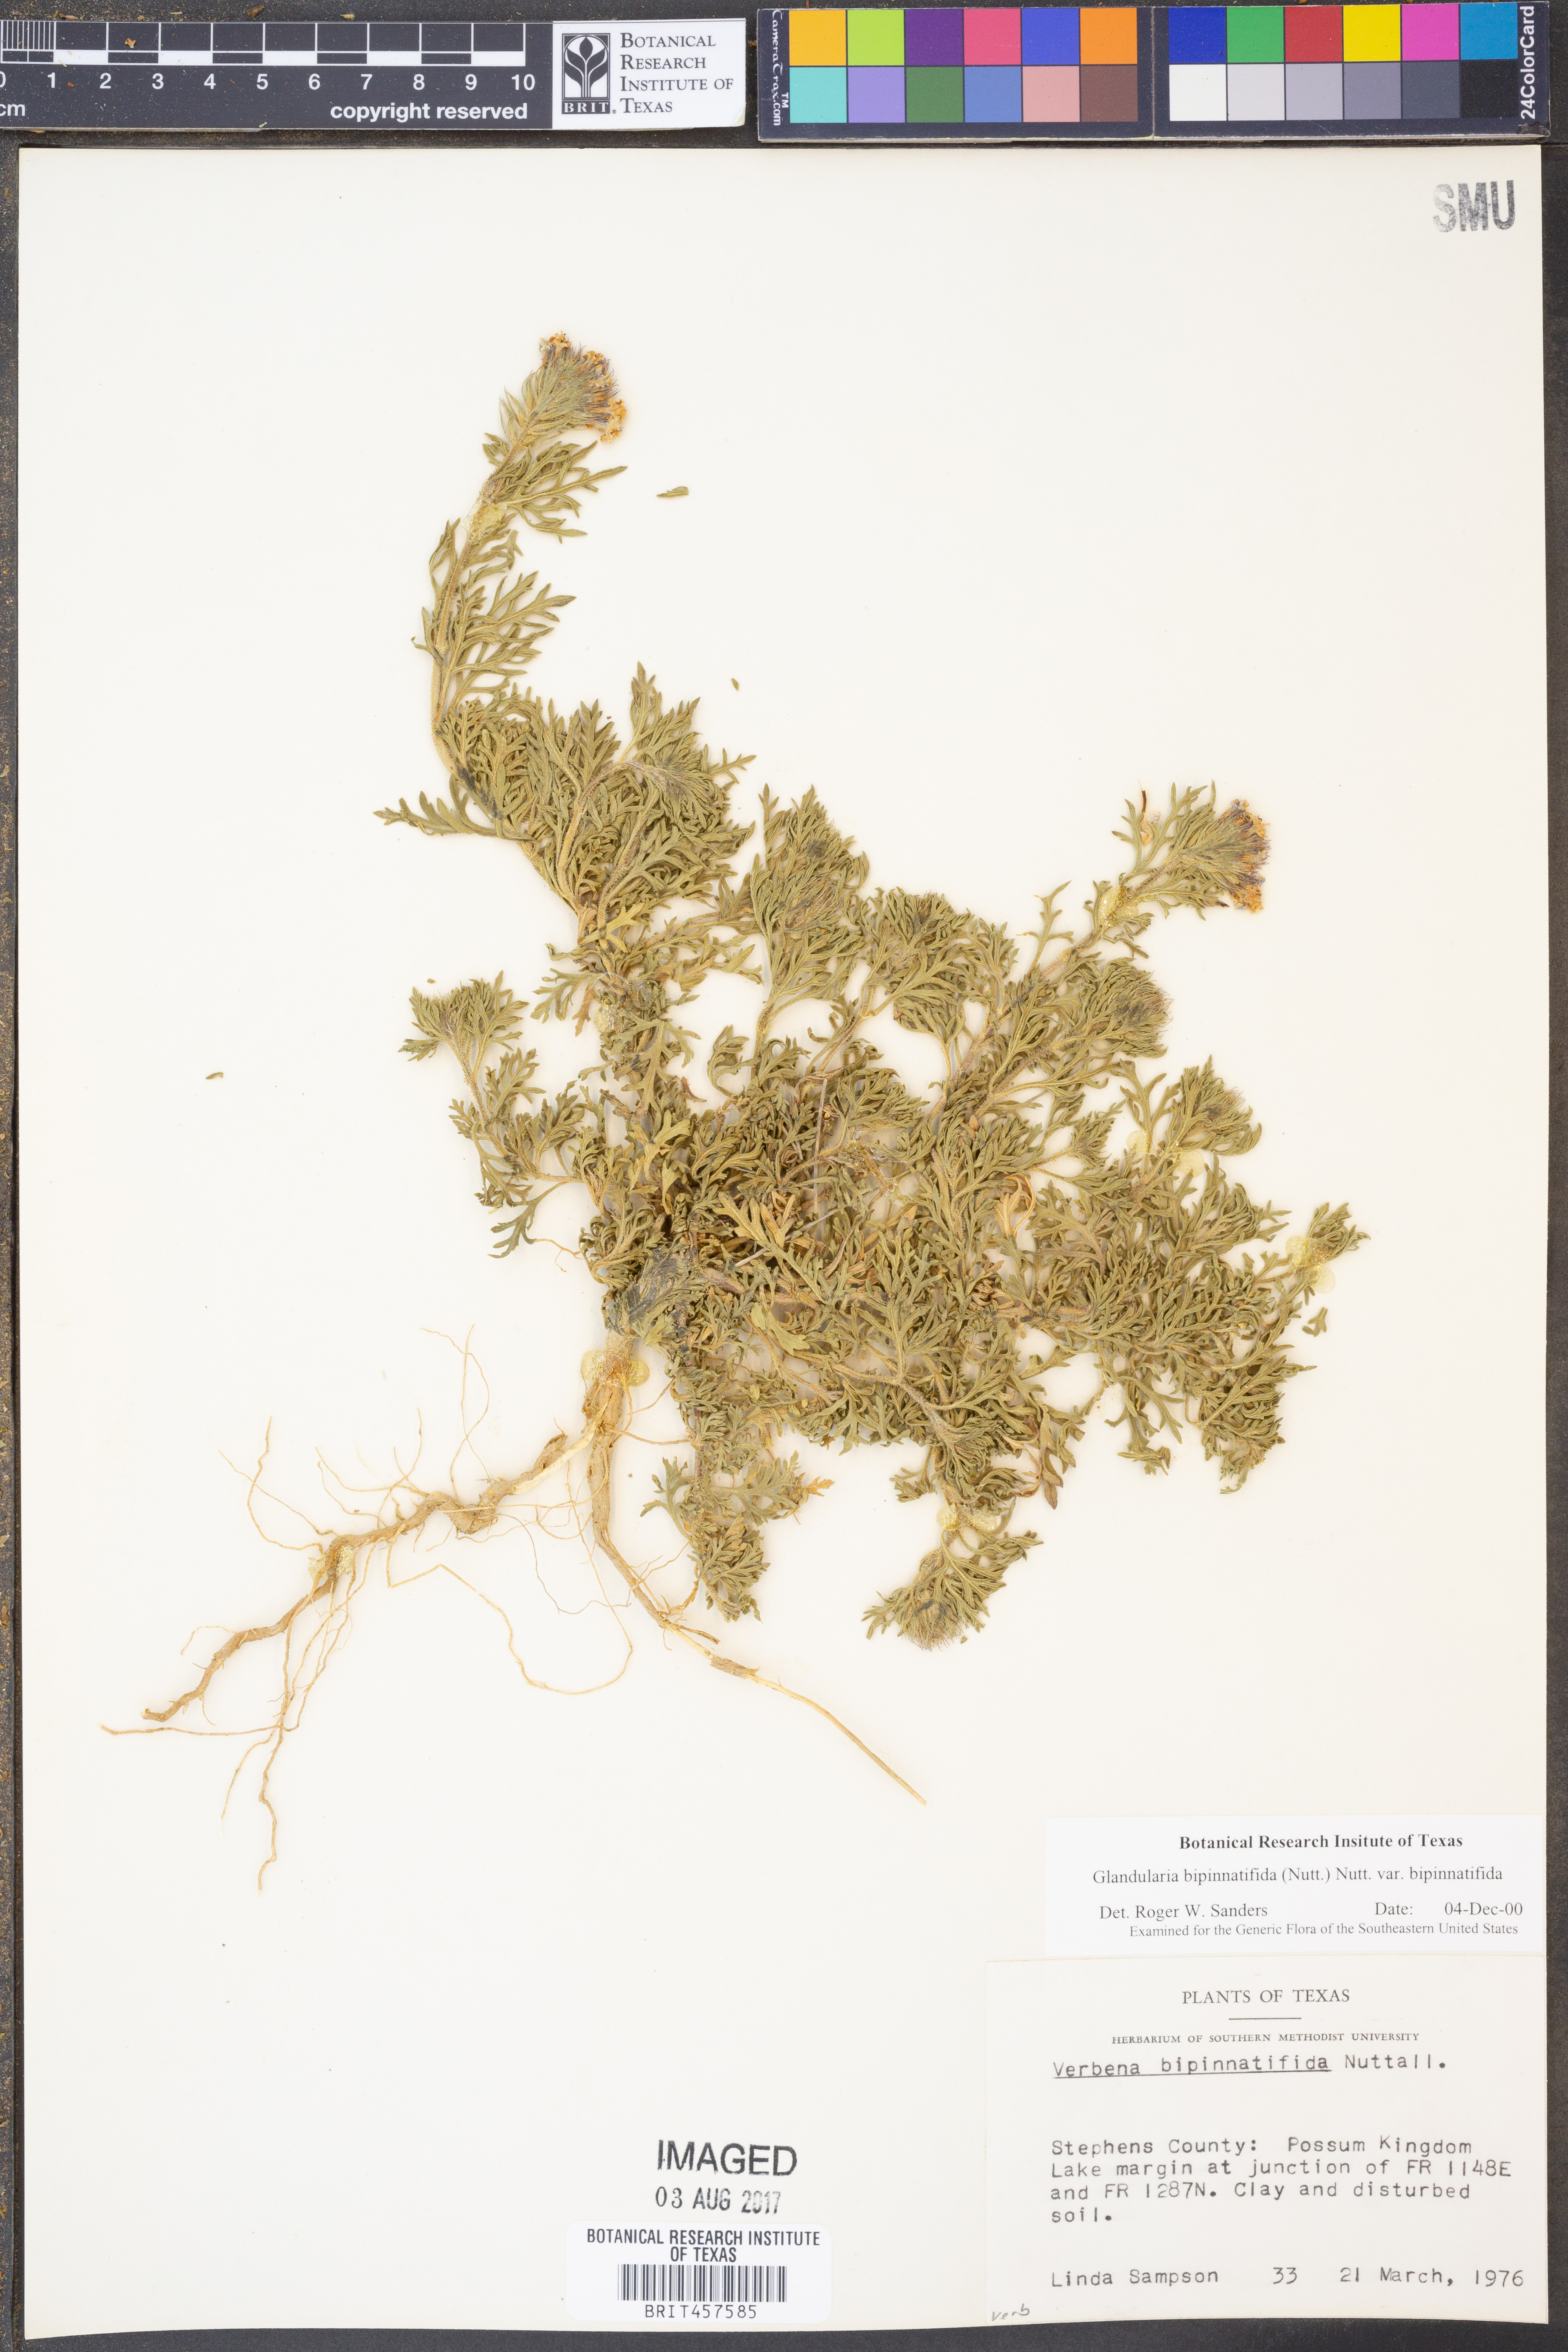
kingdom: Plantae
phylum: Tracheophyta
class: Magnoliopsida
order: Lamiales
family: Verbenaceae
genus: Verbena
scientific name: Verbena bipinnatifida
